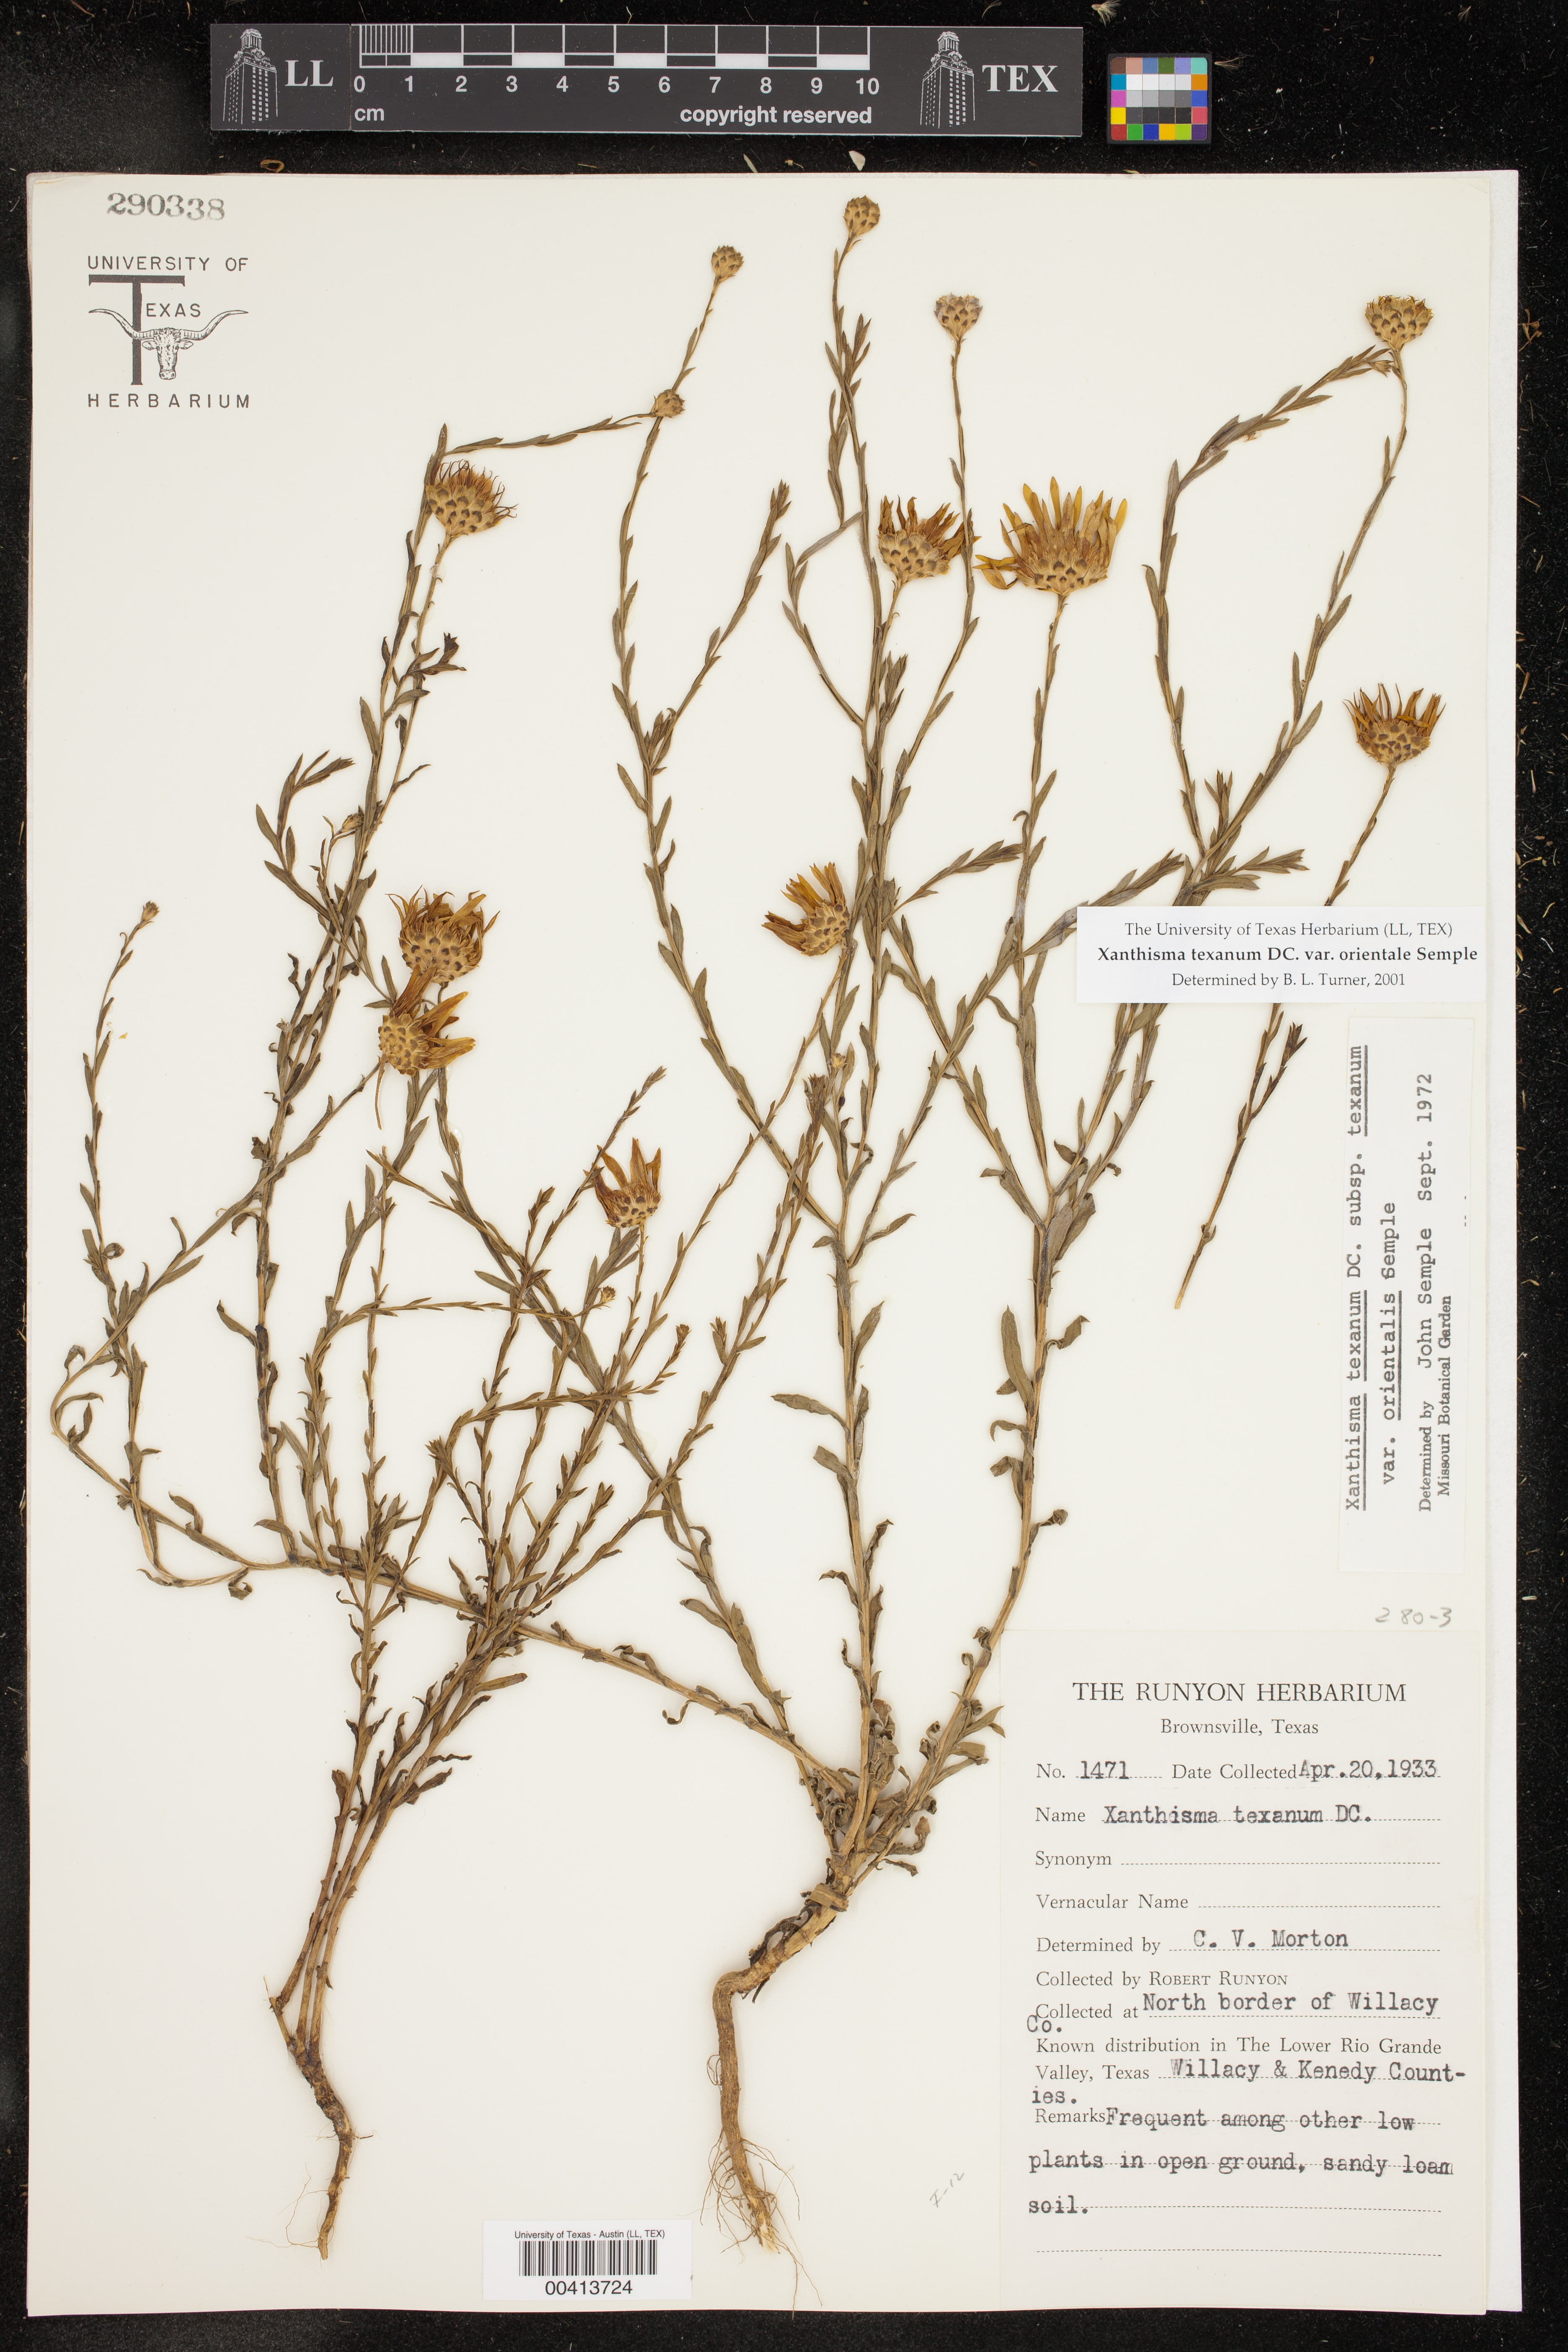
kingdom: Plantae
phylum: Tracheophyta
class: Magnoliopsida
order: Asterales
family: Asteraceae
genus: Xanthisma
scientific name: Xanthisma texanum
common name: Texas sleepy daisy
